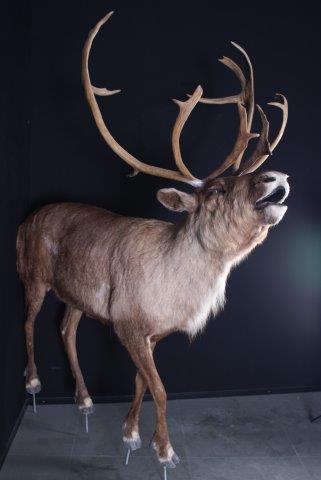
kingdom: Animalia
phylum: Chordata
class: Mammalia
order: Artiodactyla
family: Cervidae
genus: Rangifer
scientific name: Rangifer tarandus
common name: Reindeer
